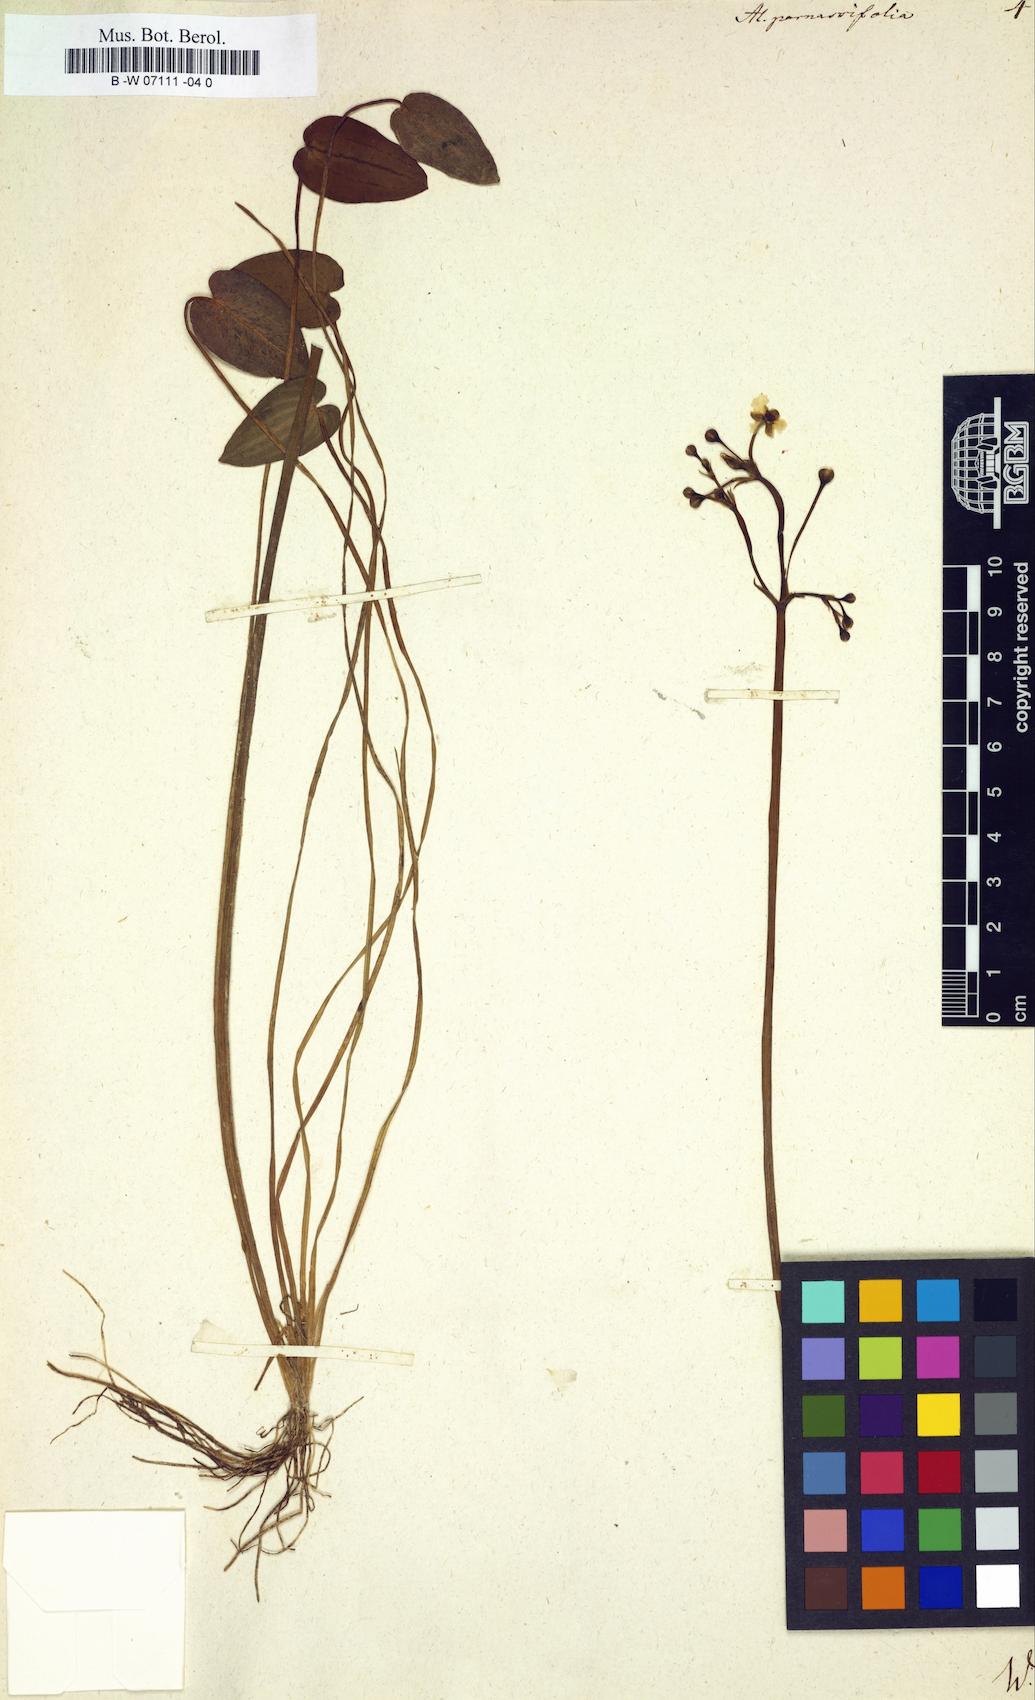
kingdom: Plantae
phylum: Tracheophyta
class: Liliopsida
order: Alismatales
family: Alismataceae
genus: Caldesia
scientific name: Caldesia parnassifolia
